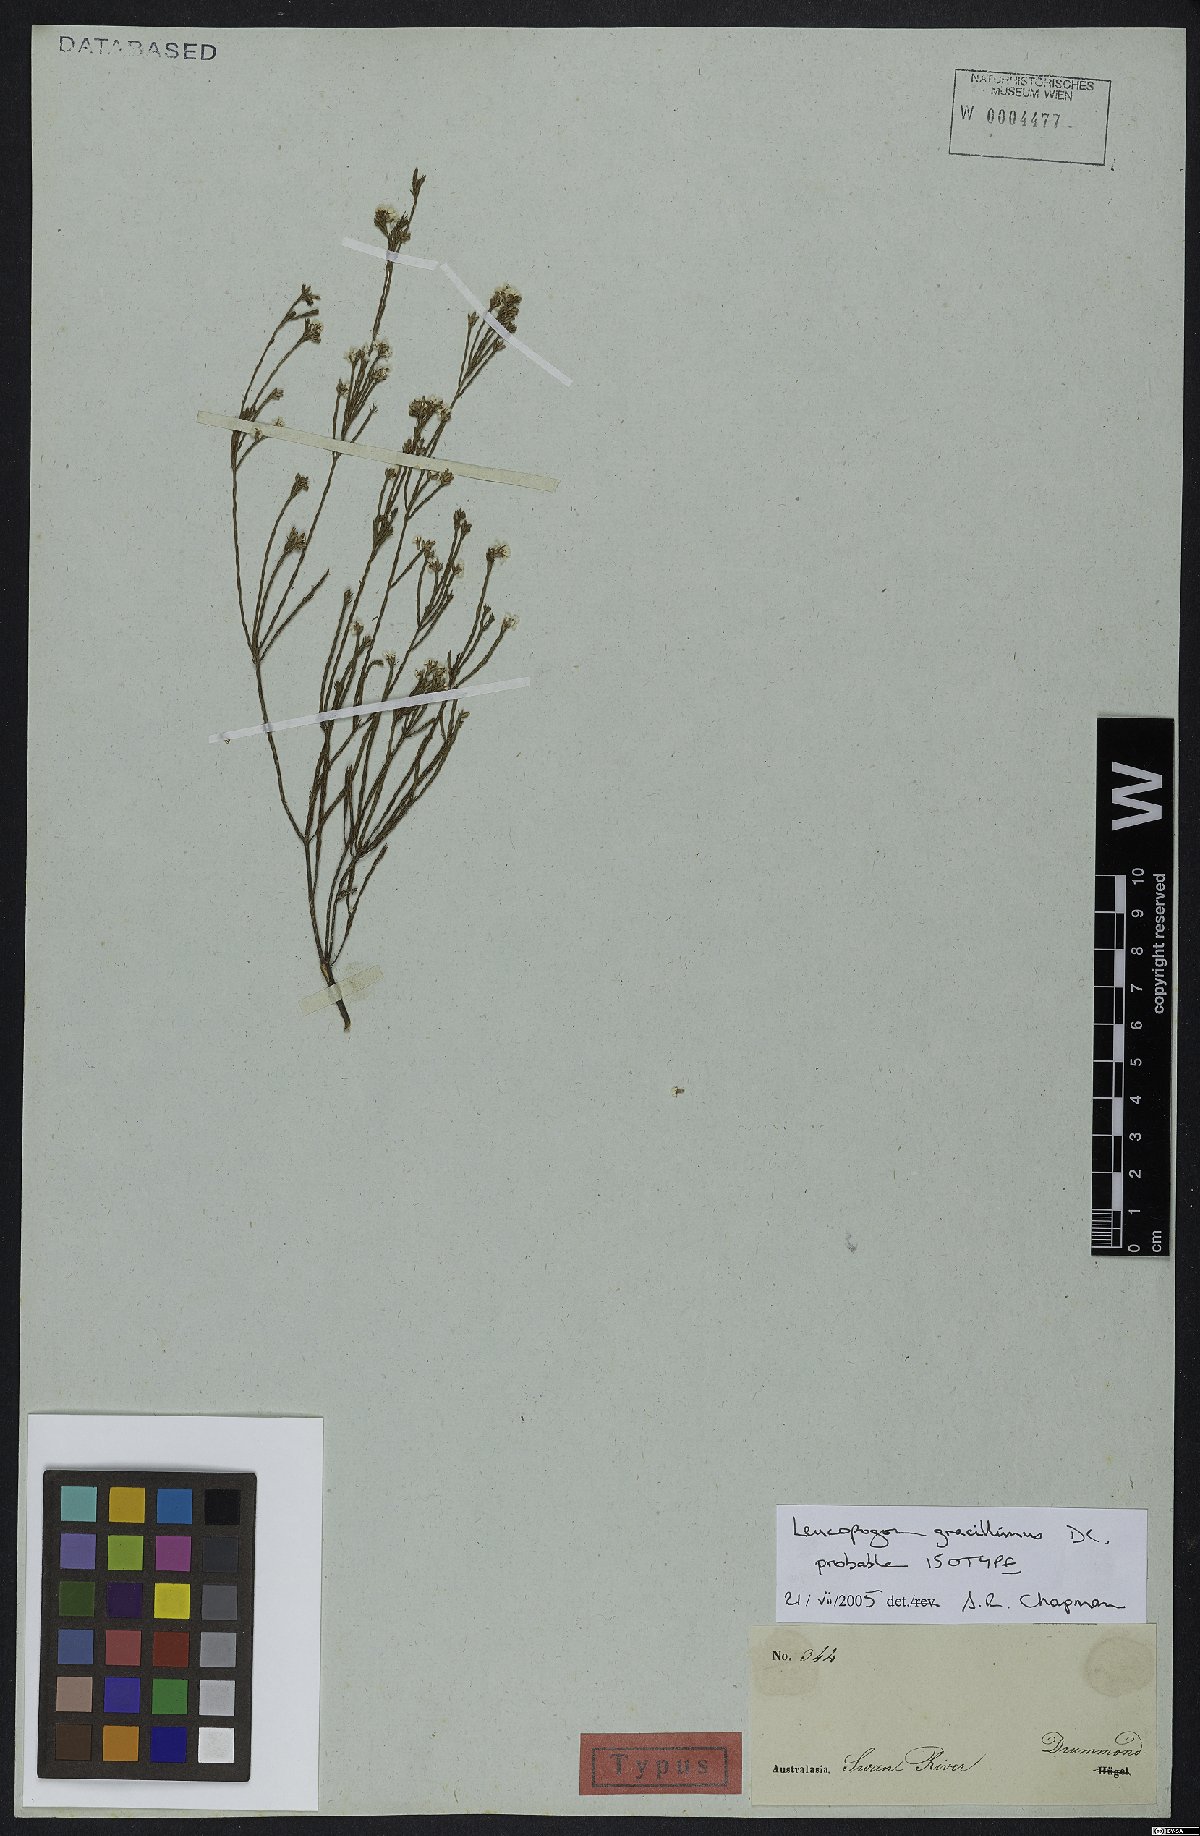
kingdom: Plantae
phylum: Tracheophyta
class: Magnoliopsida
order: Ericales
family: Ericaceae
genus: Leucopogon
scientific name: Leucopogon gracillimus
